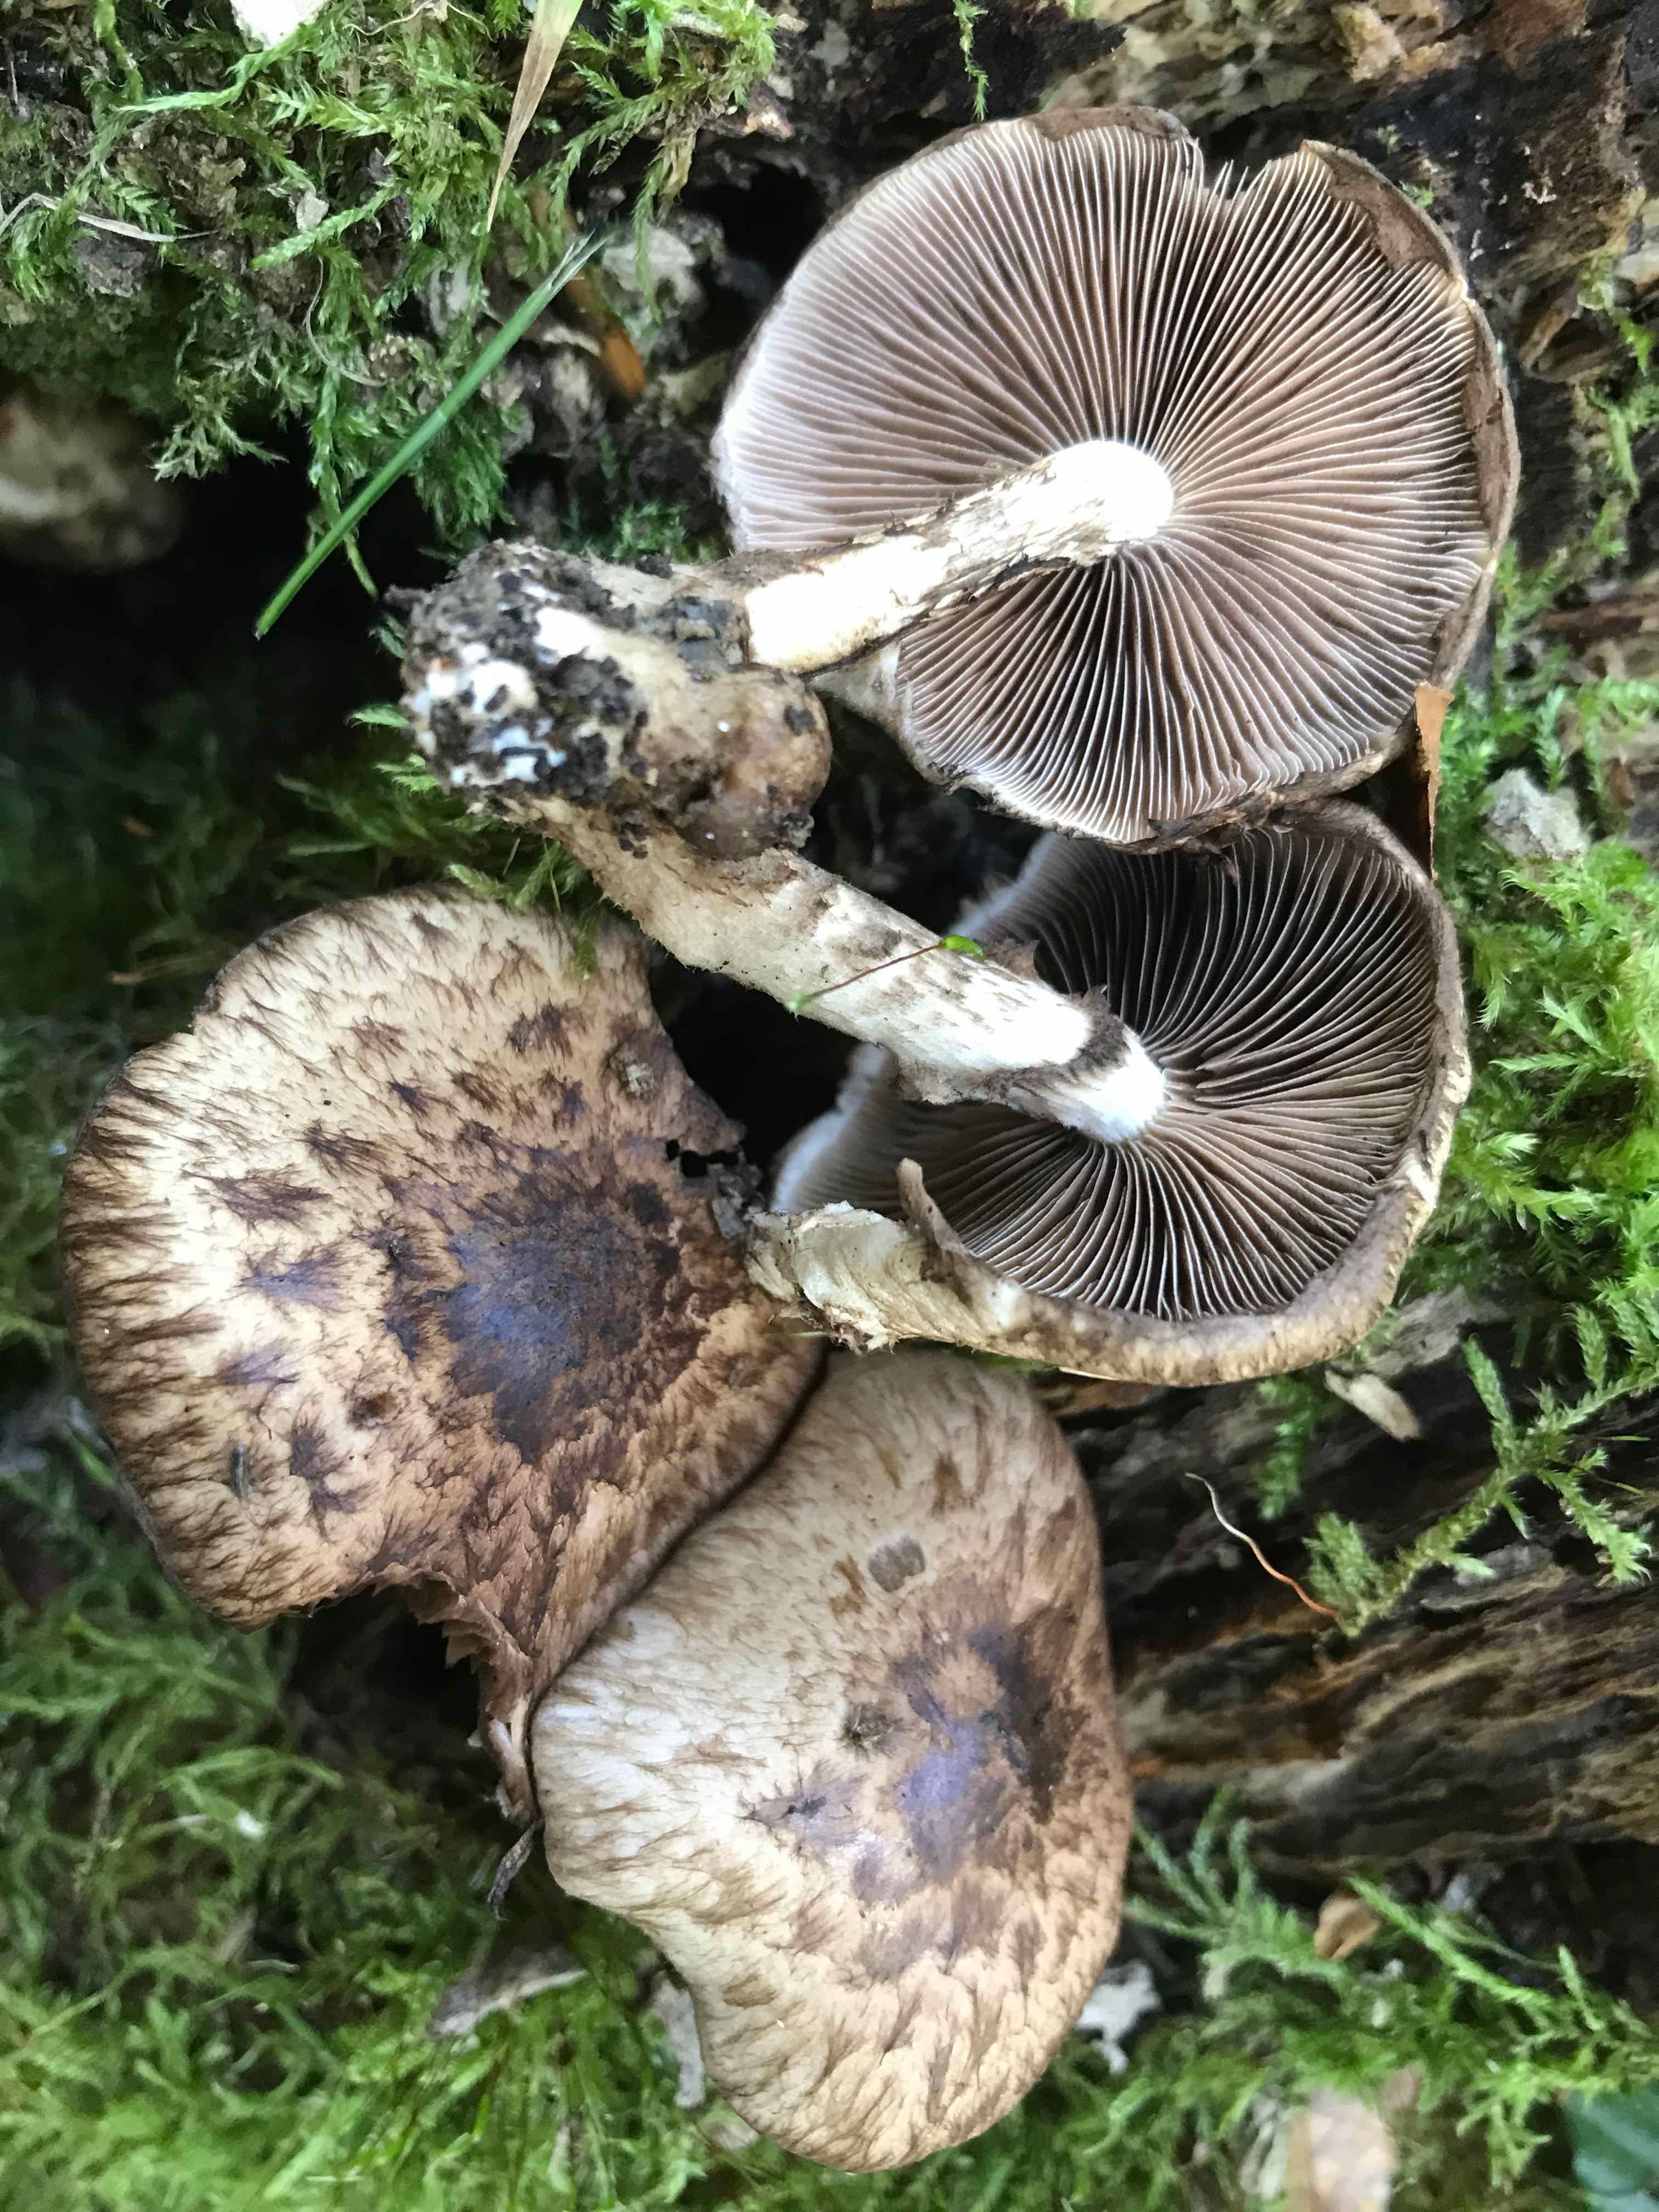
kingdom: Fungi
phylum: Basidiomycota
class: Agaricomycetes
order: Agaricales
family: Psathyrellaceae
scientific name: Psathyrellaceae
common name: mørkhatfamilien
